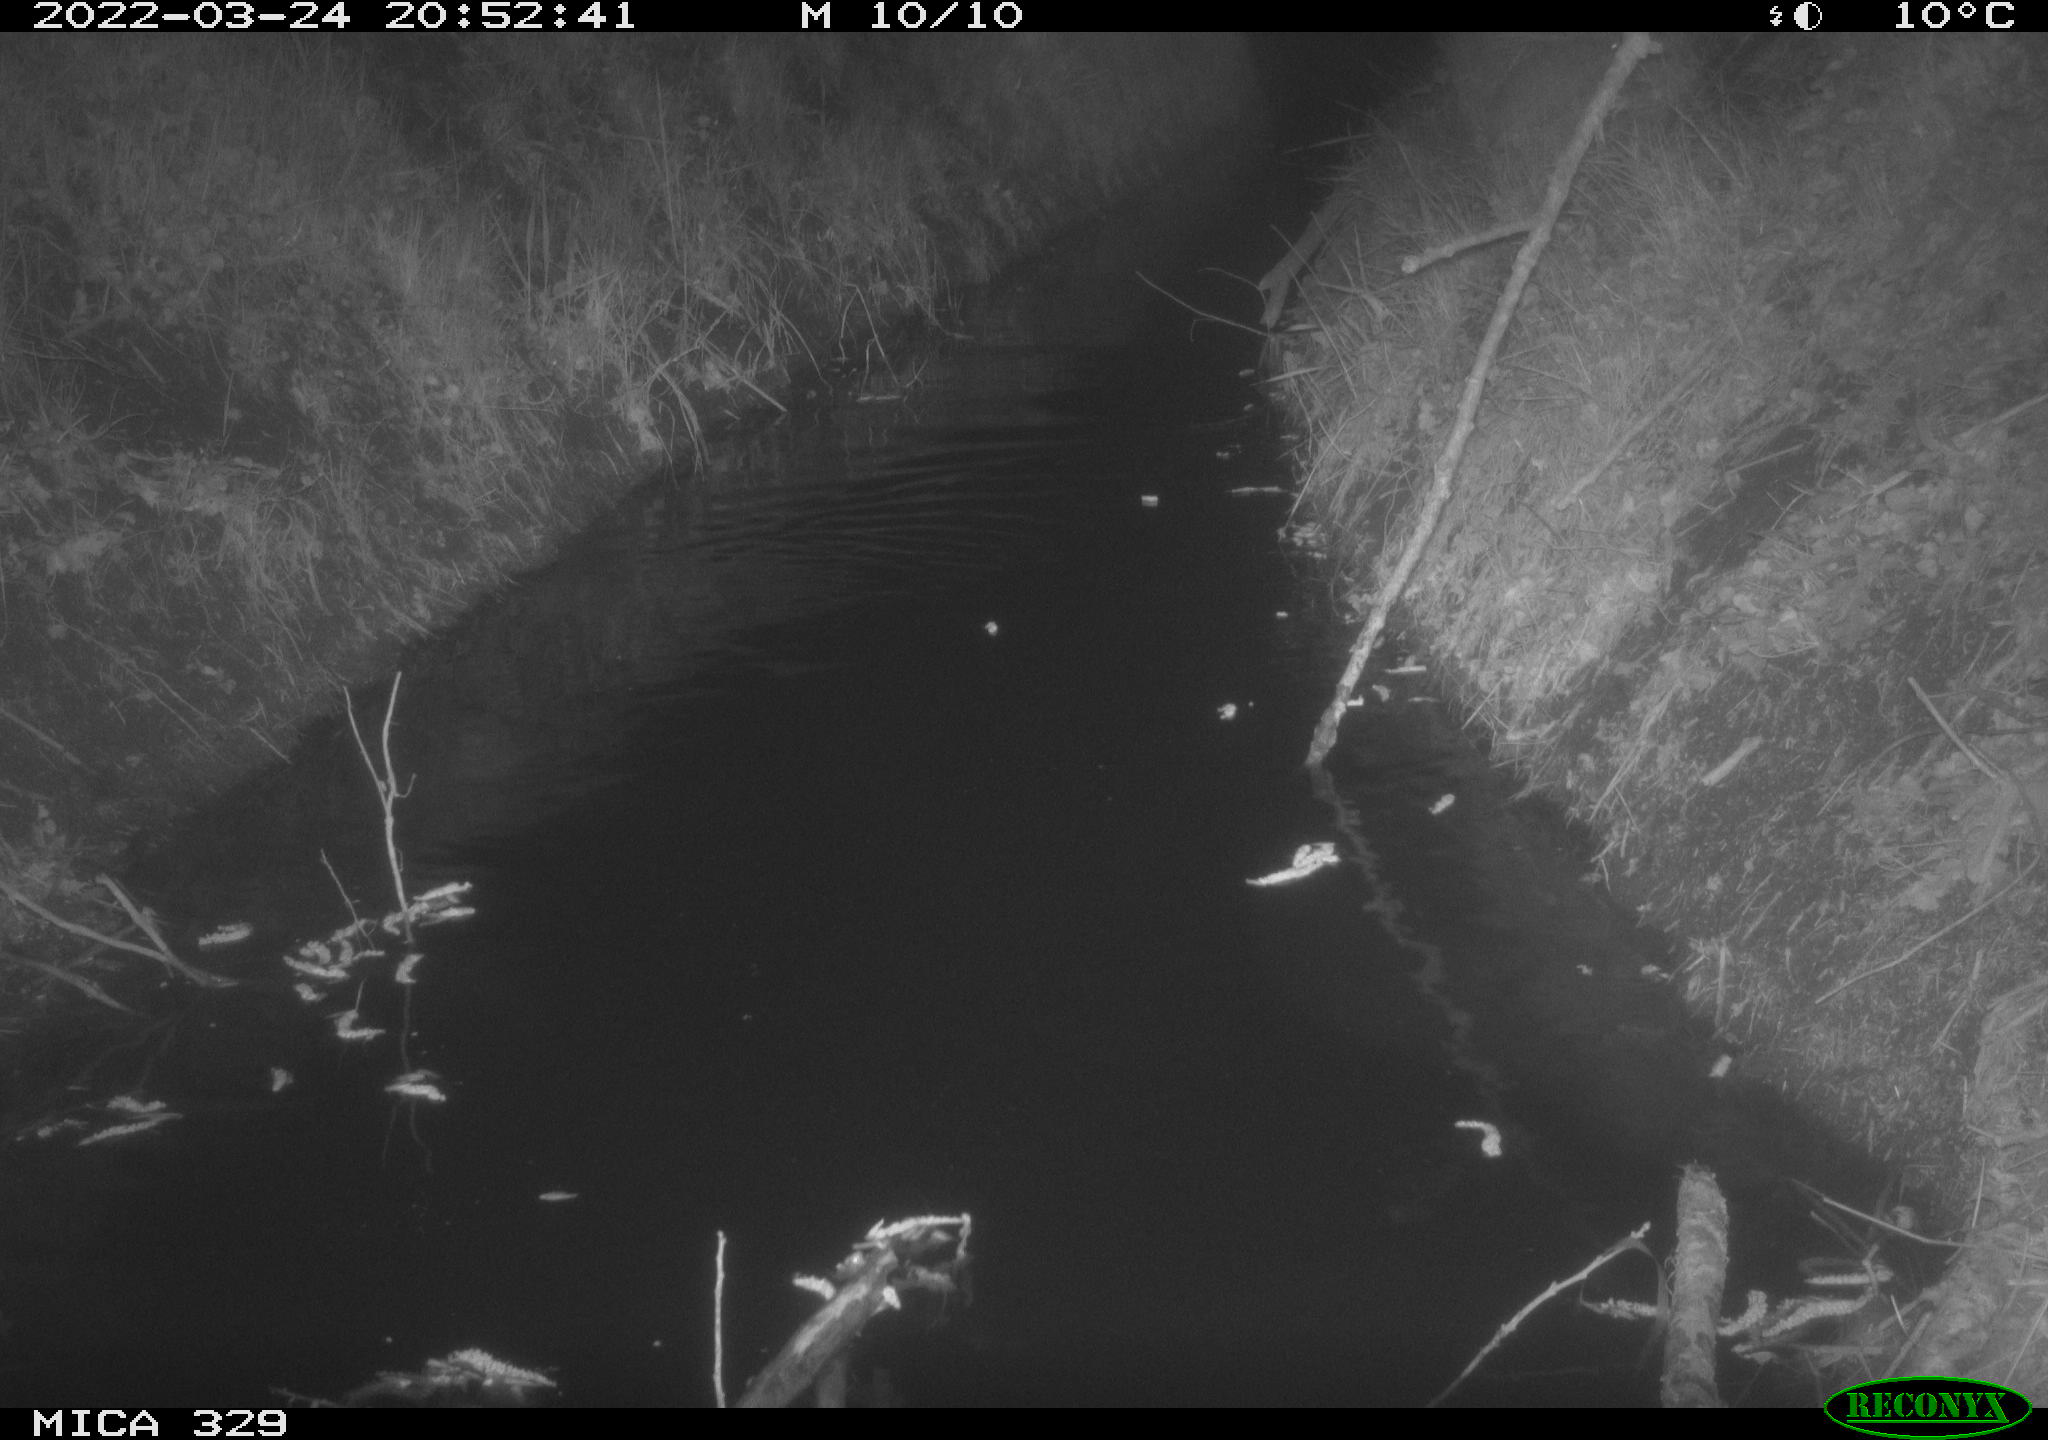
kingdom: Animalia
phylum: Chordata
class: Mammalia
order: Rodentia
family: Cricetidae
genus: Ondatra
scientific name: Ondatra zibethicus
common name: Muskrat
